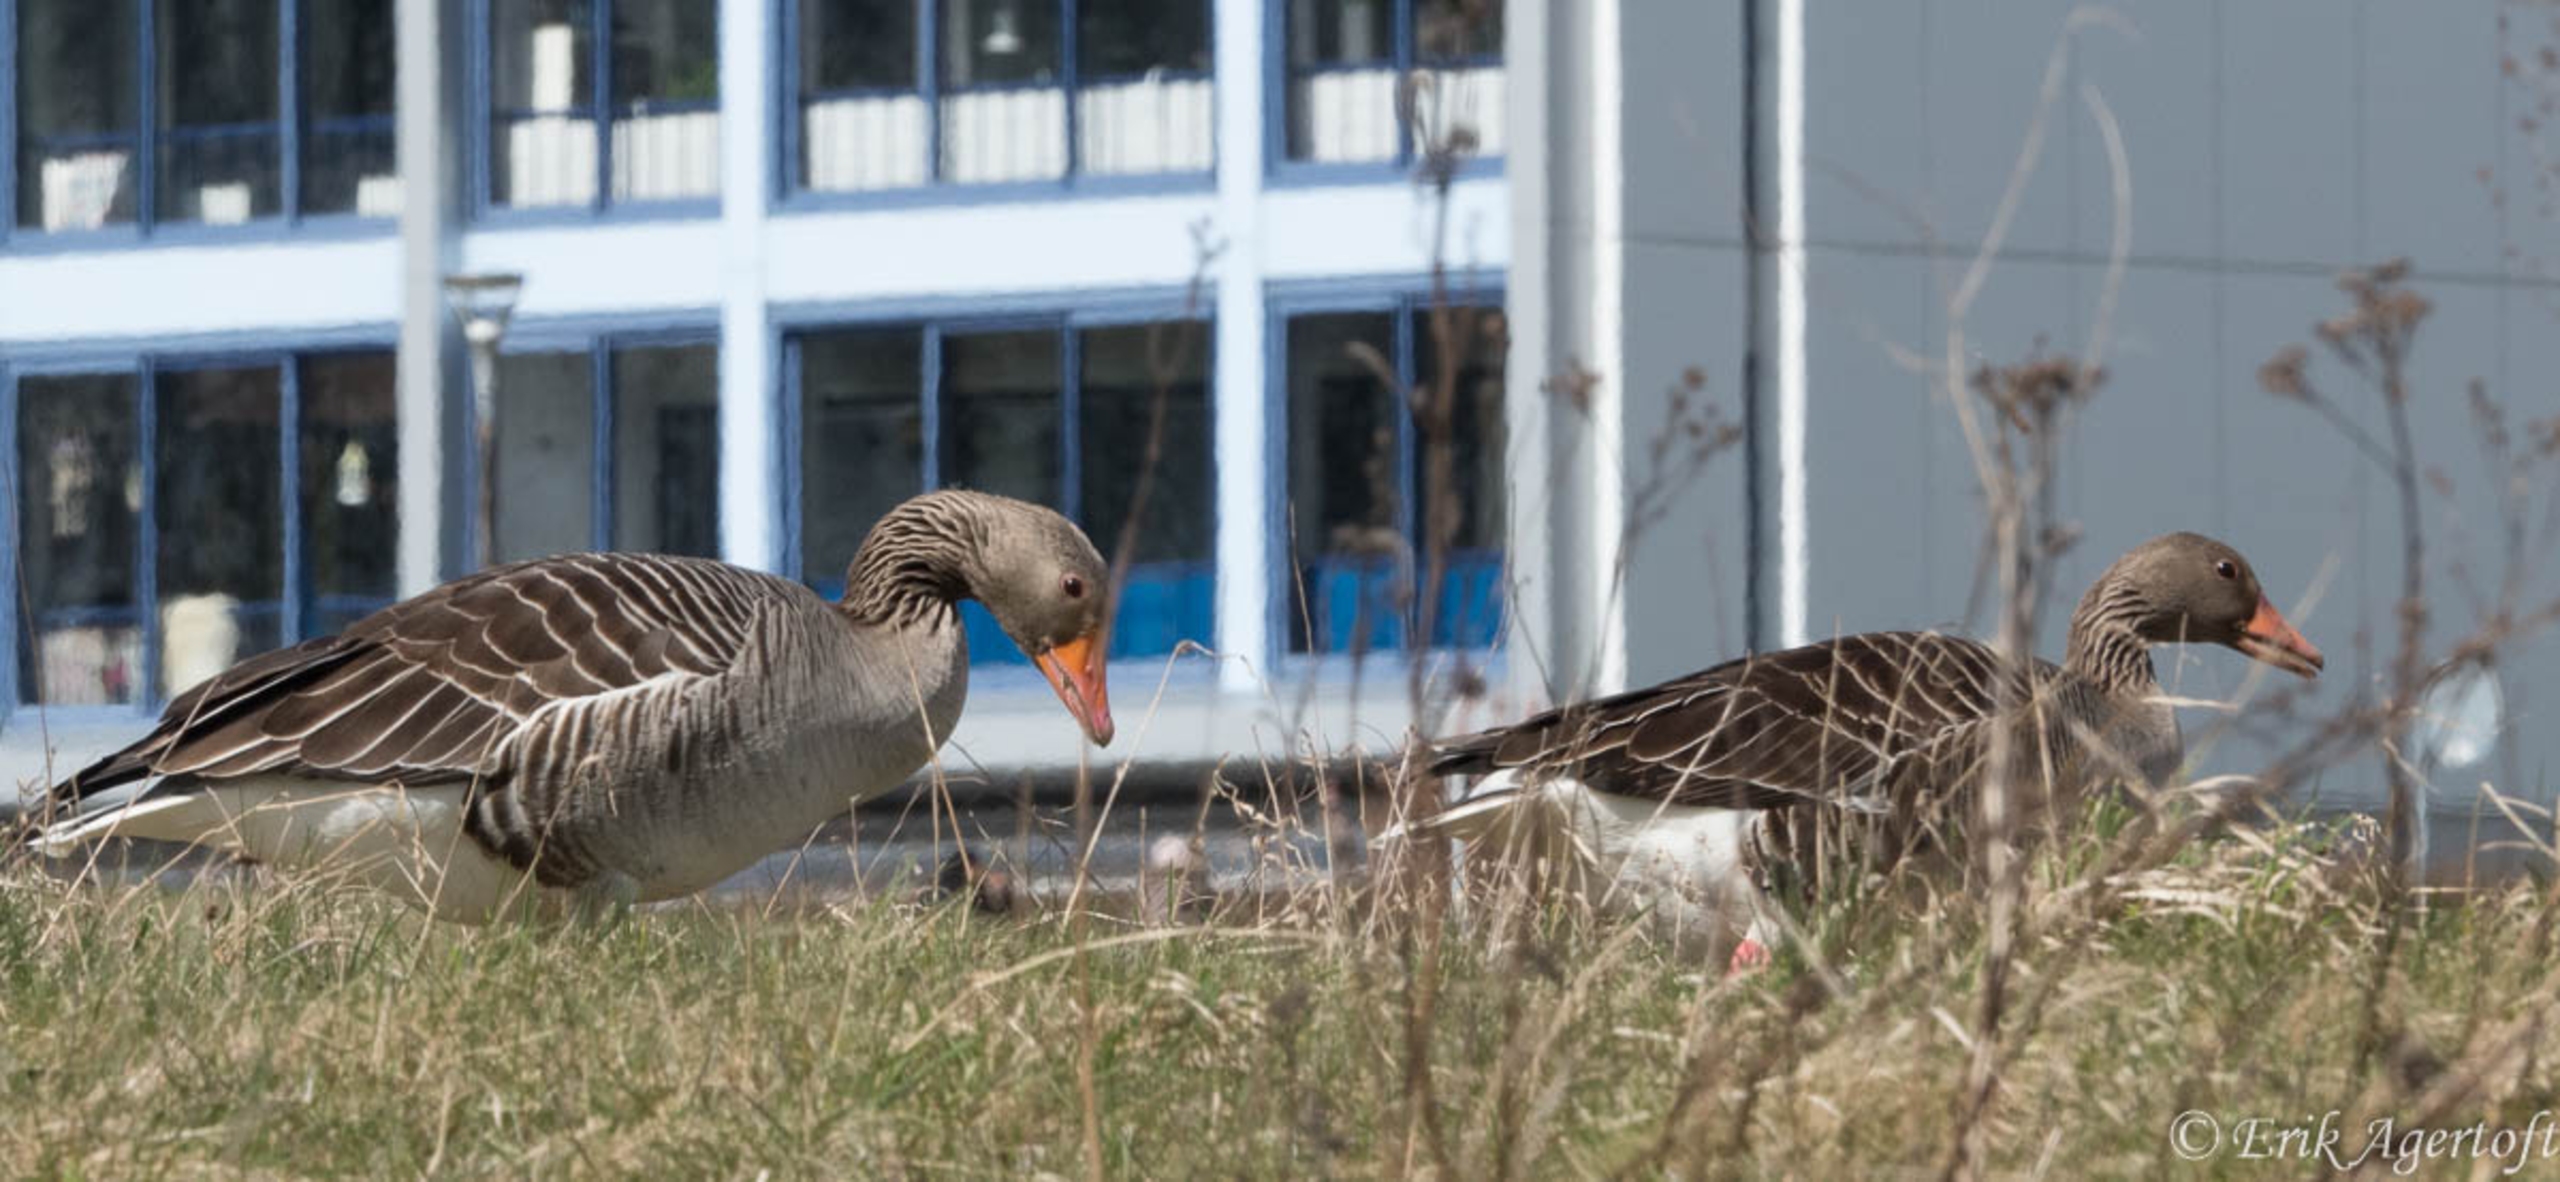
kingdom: Animalia
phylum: Chordata
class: Aves
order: Anseriformes
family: Anatidae
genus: Anser
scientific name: Anser anser
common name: Grågås
